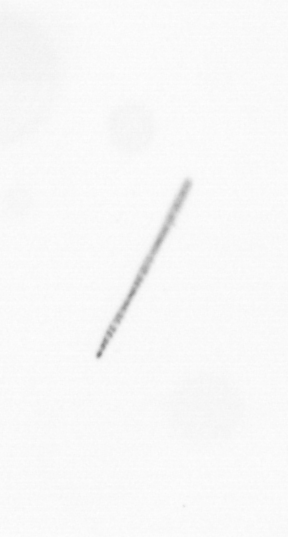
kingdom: Chromista
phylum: Ochrophyta
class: Bacillariophyceae
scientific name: Bacillariophyceae
